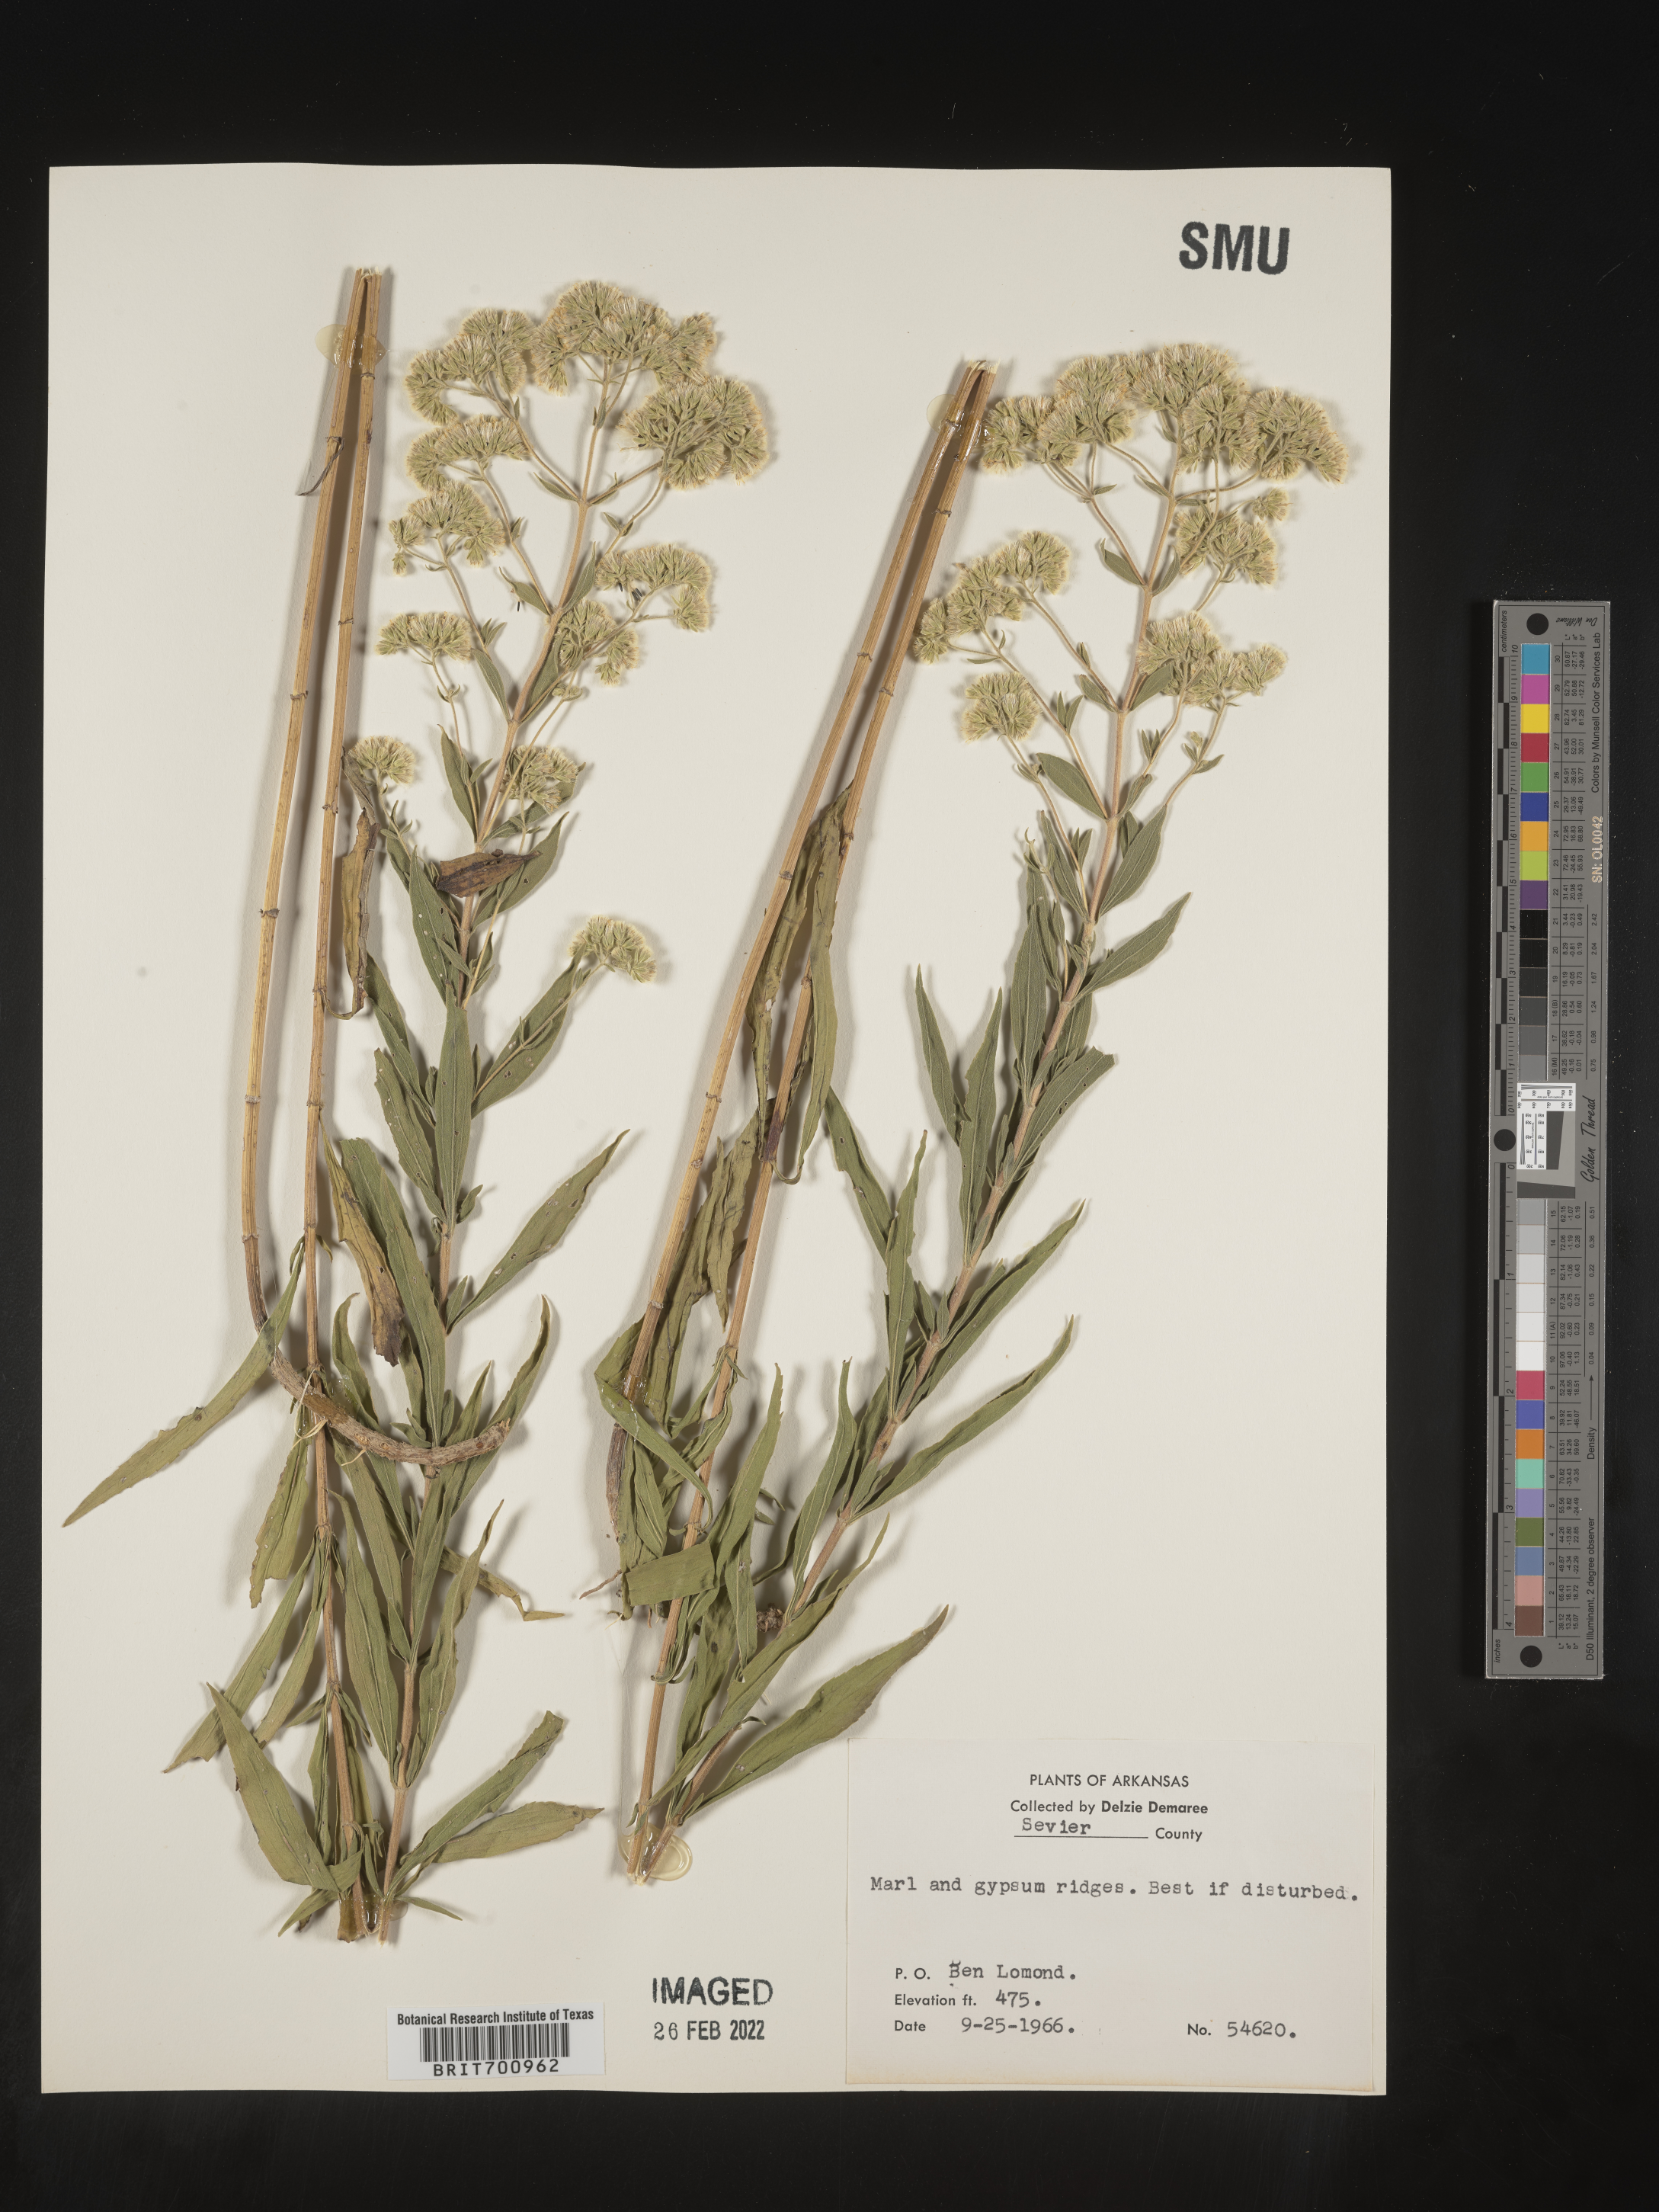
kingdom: Plantae
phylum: Tracheophyta
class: Magnoliopsida
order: Asterales
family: Asteraceae
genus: Eupatorium
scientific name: Eupatorium altissimum
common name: Tall thoroughwort
